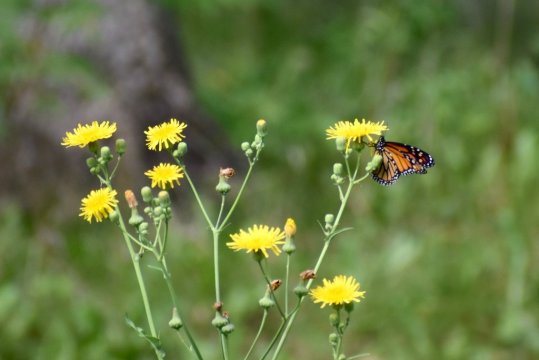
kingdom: Animalia
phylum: Arthropoda
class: Insecta
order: Lepidoptera
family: Nymphalidae
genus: Danaus
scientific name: Danaus plexippus
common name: Monarch
